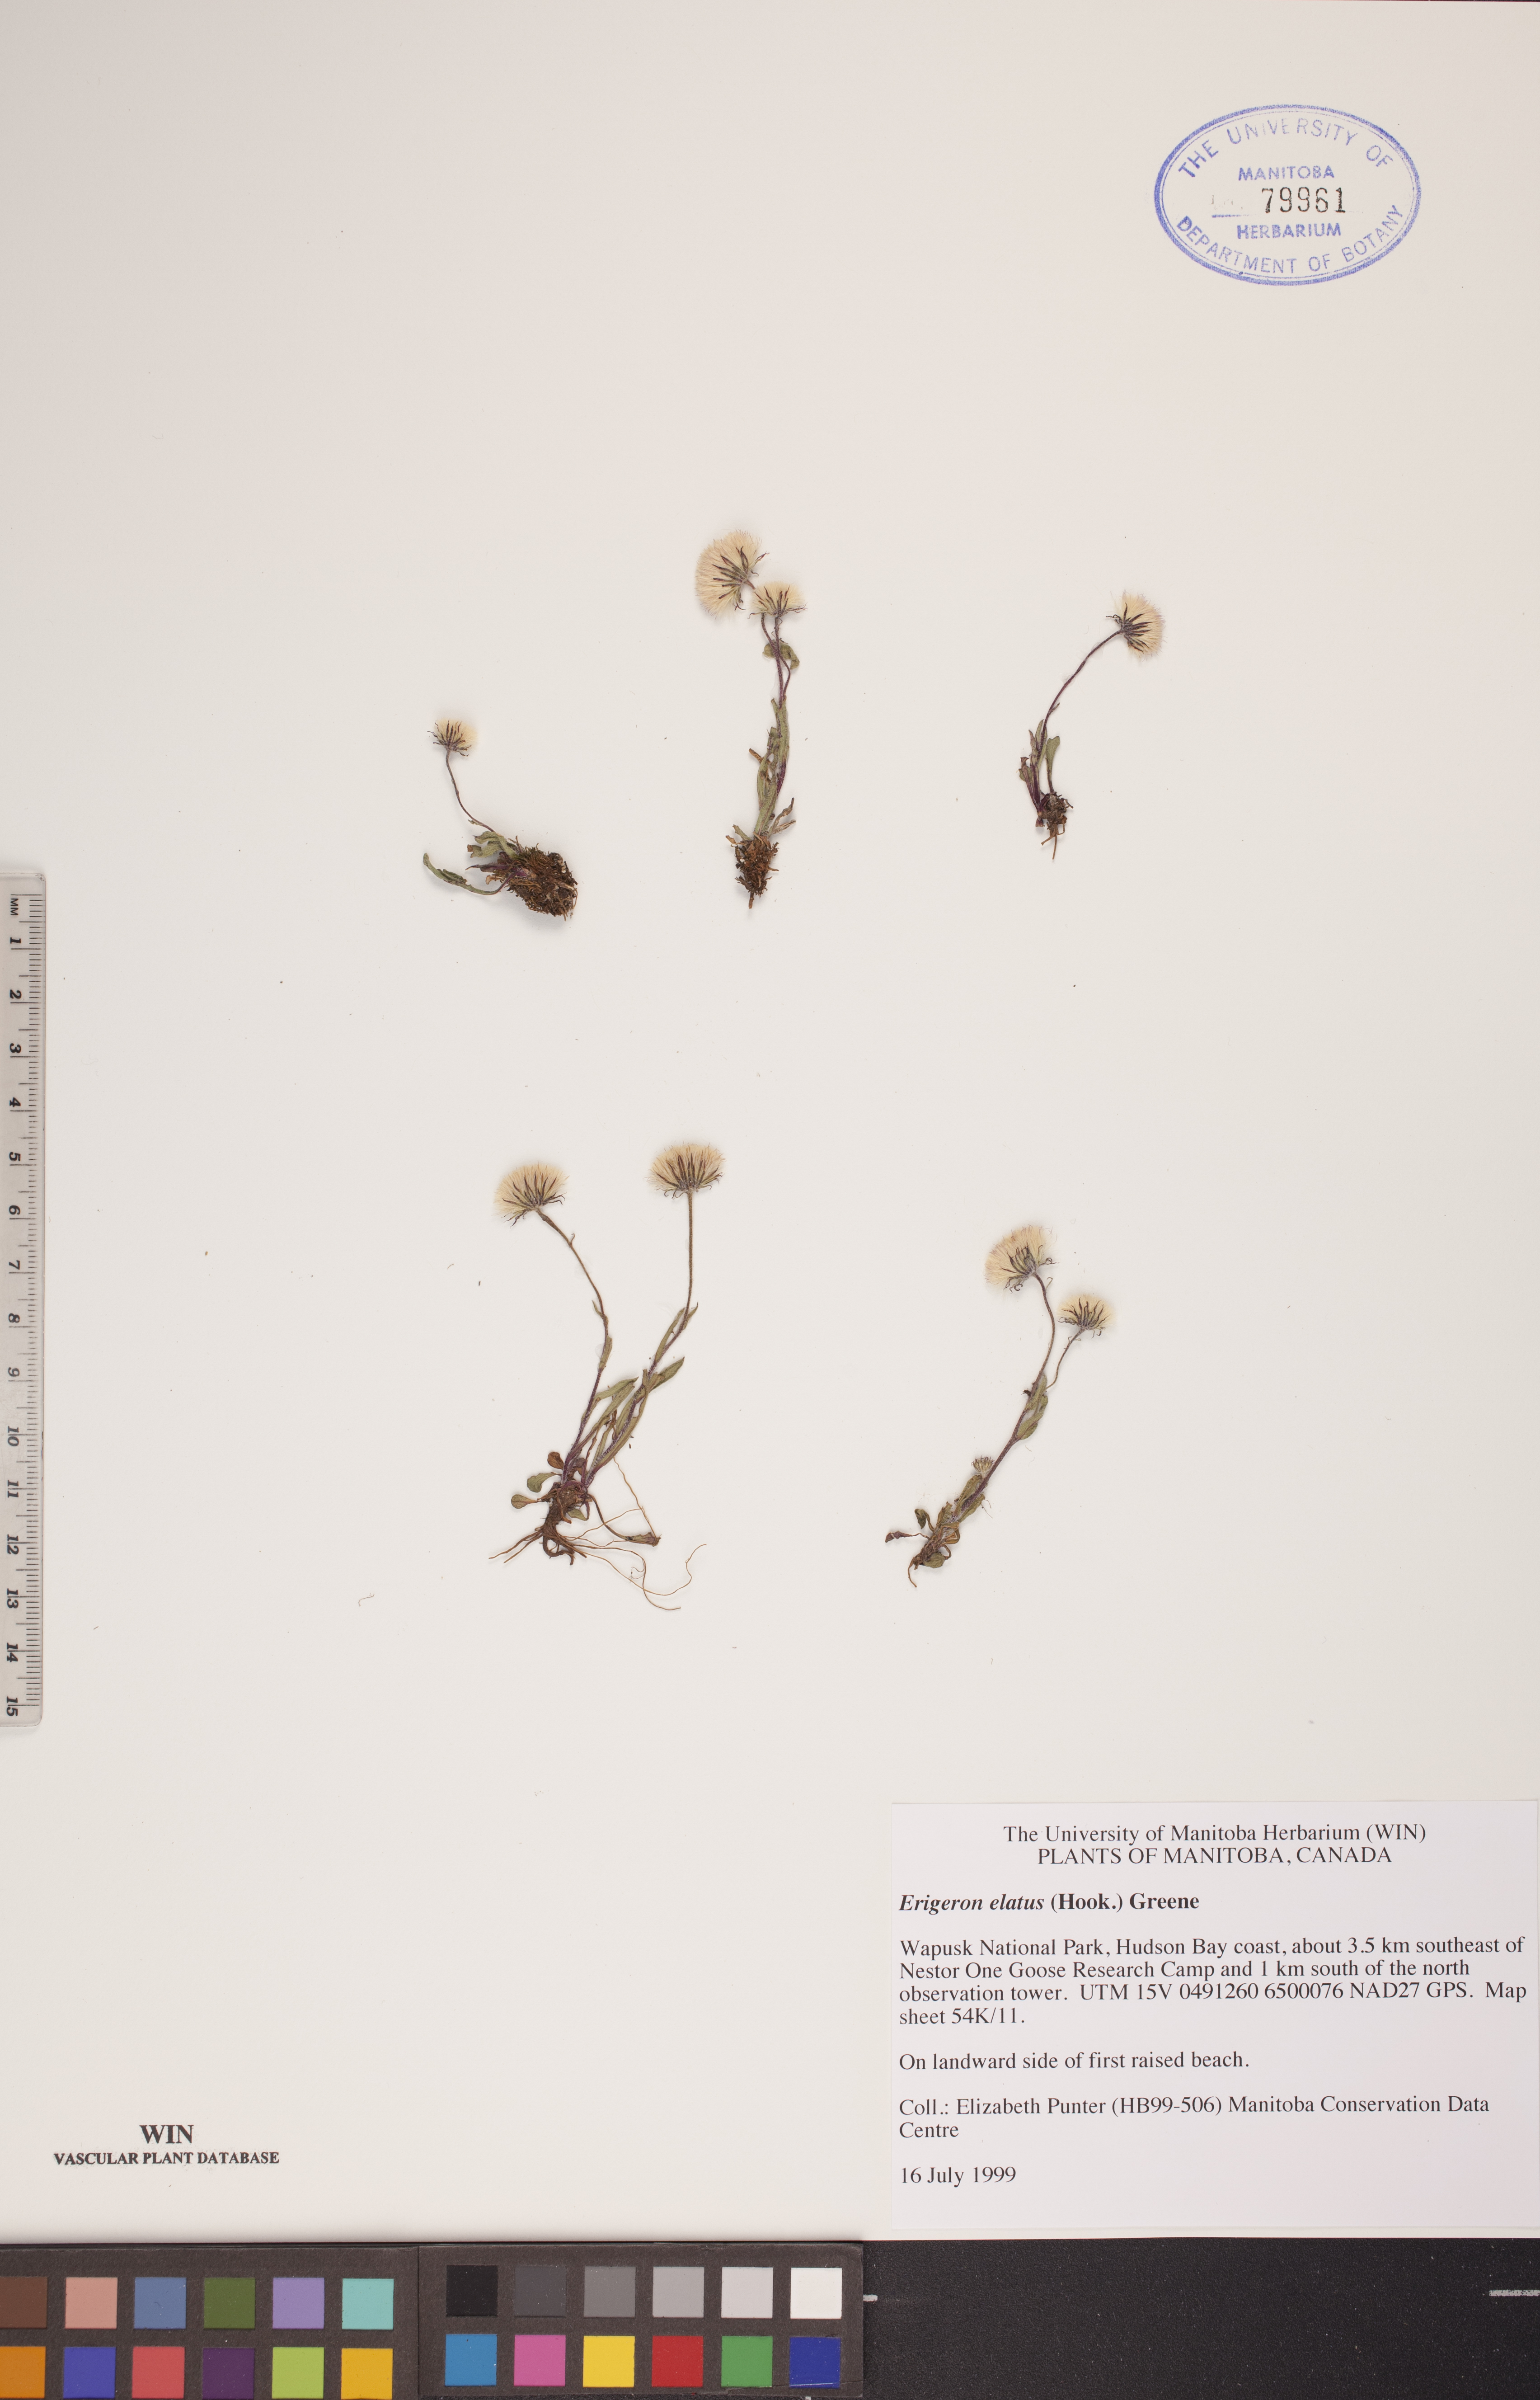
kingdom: Plantae
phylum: Tracheophyta
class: Magnoliopsida
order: Asterales
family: Asteraceae
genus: Erigeron
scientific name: Erigeron elatus
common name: Swamp fleabane
